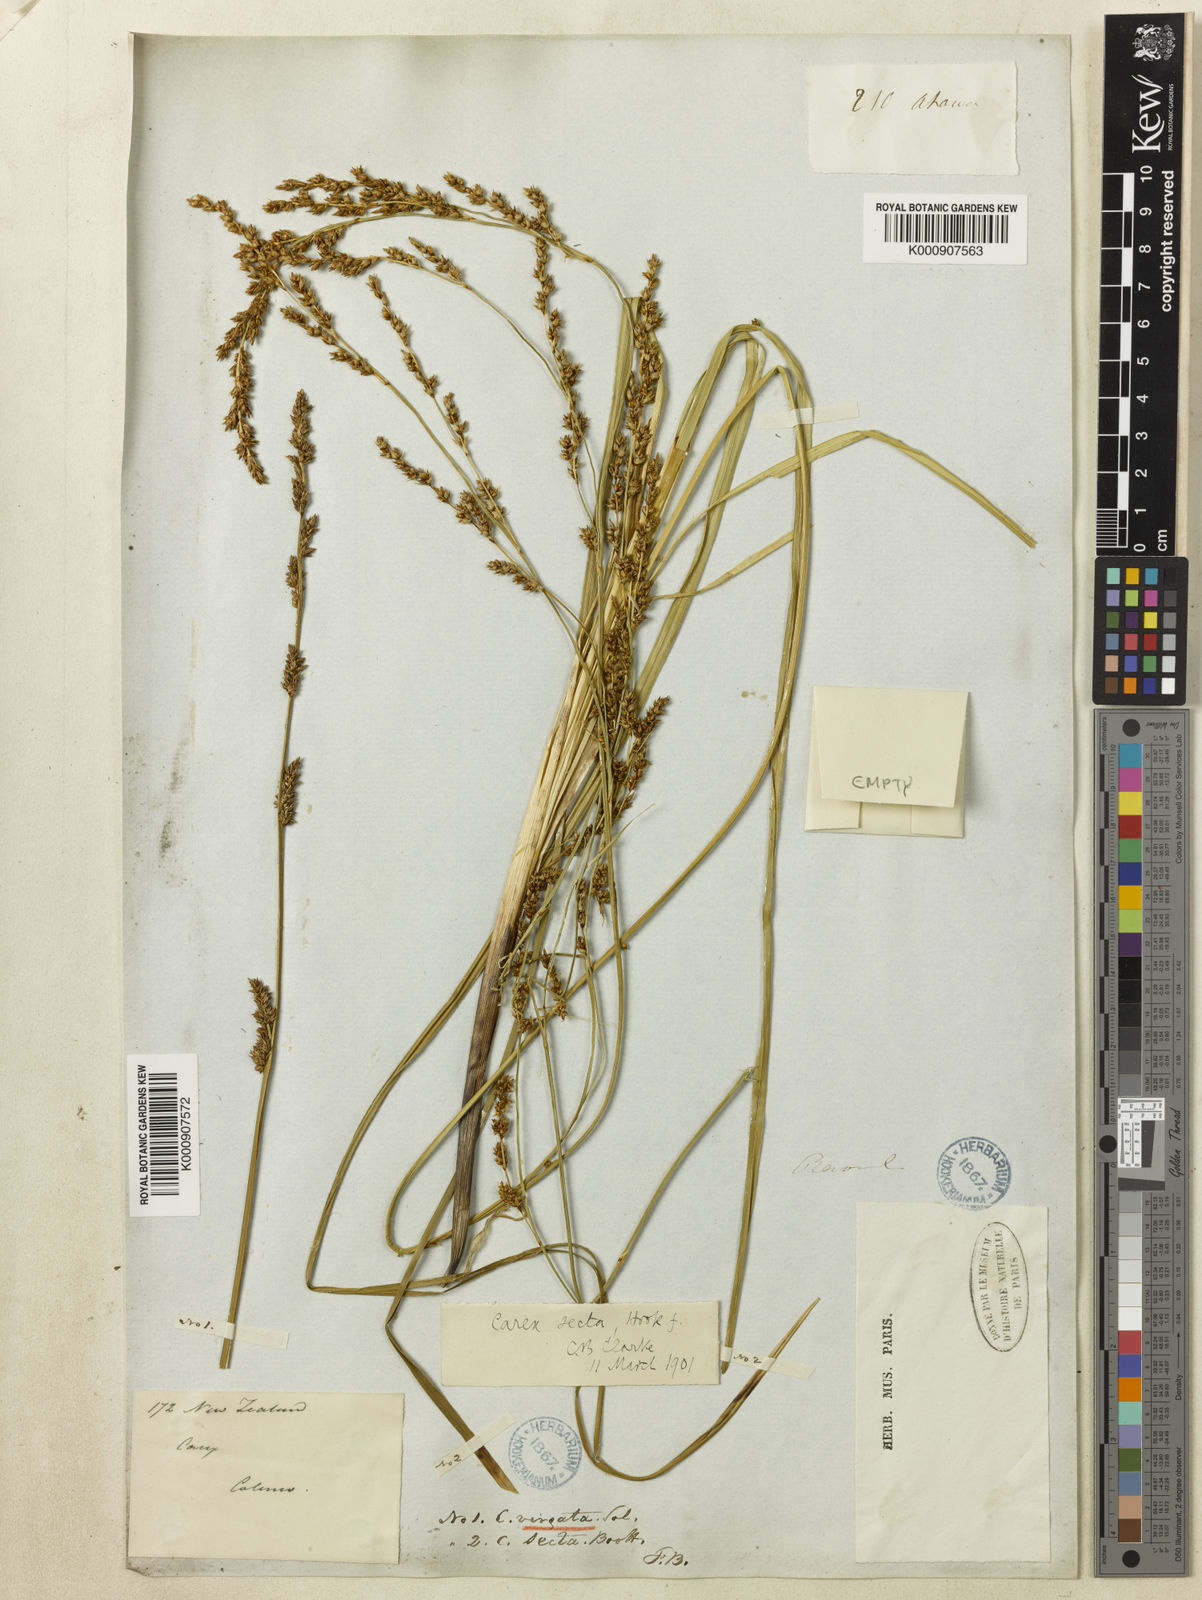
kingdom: Plantae
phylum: Tracheophyta
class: Liliopsida
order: Poales
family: Cyperaceae
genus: Carex
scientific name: Carex appressa
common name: Tussock sedge
